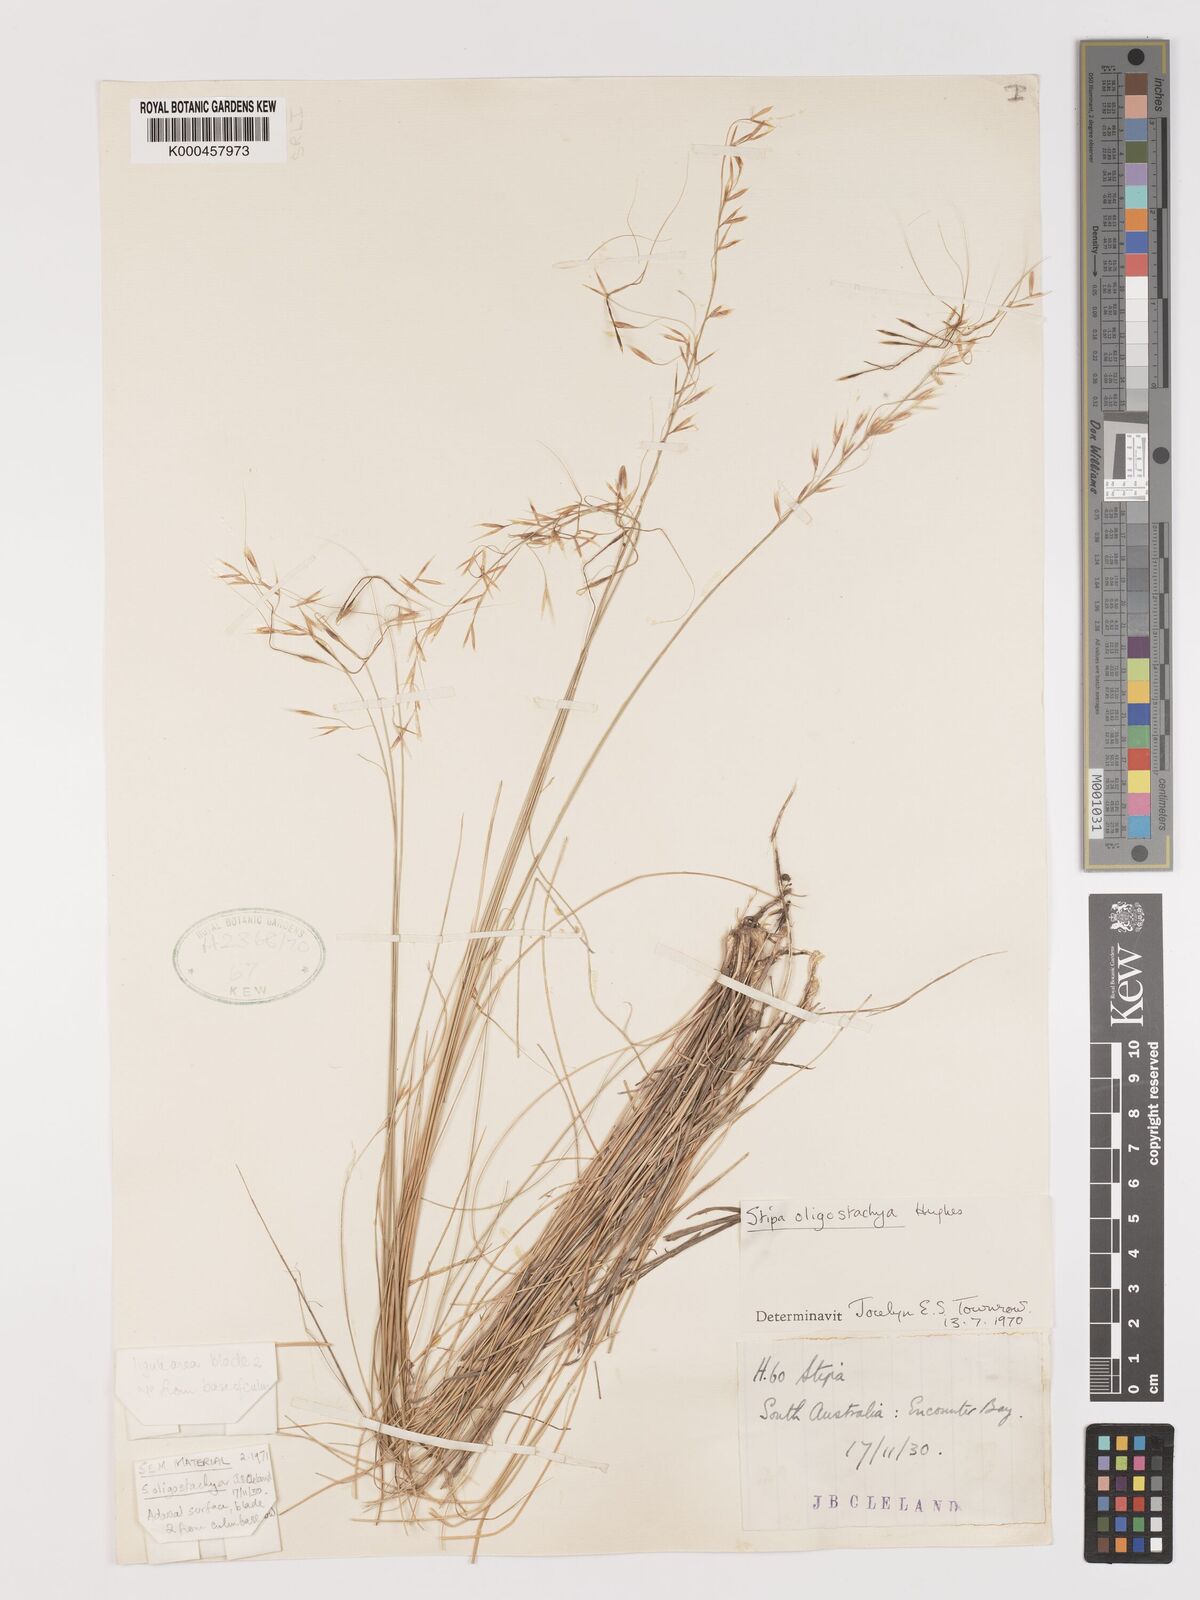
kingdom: Plantae
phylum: Tracheophyta
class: Liliopsida
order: Poales
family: Poaceae
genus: Austrostipa
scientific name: Austrostipa oligostachya
